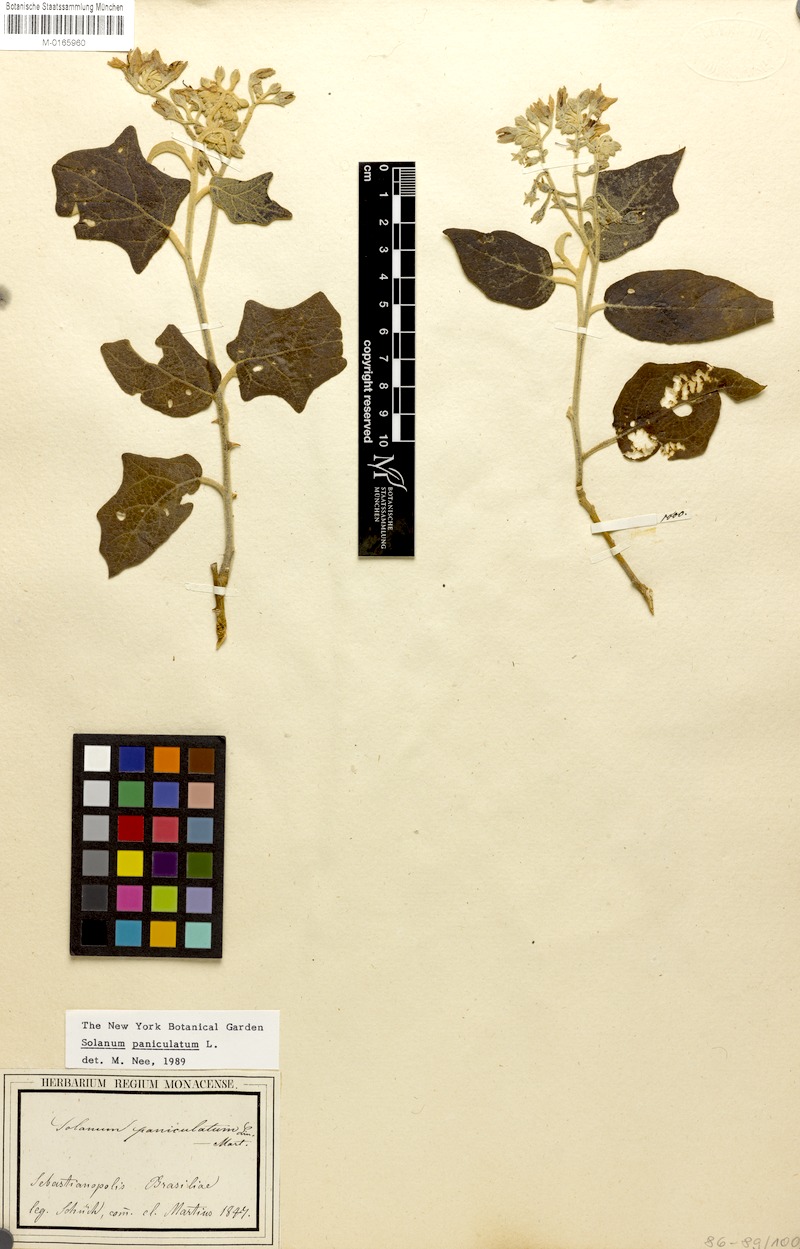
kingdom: Plantae
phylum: Tracheophyta
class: Magnoliopsida
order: Solanales
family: Solanaceae
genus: Solanum
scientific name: Solanum paniculatum
